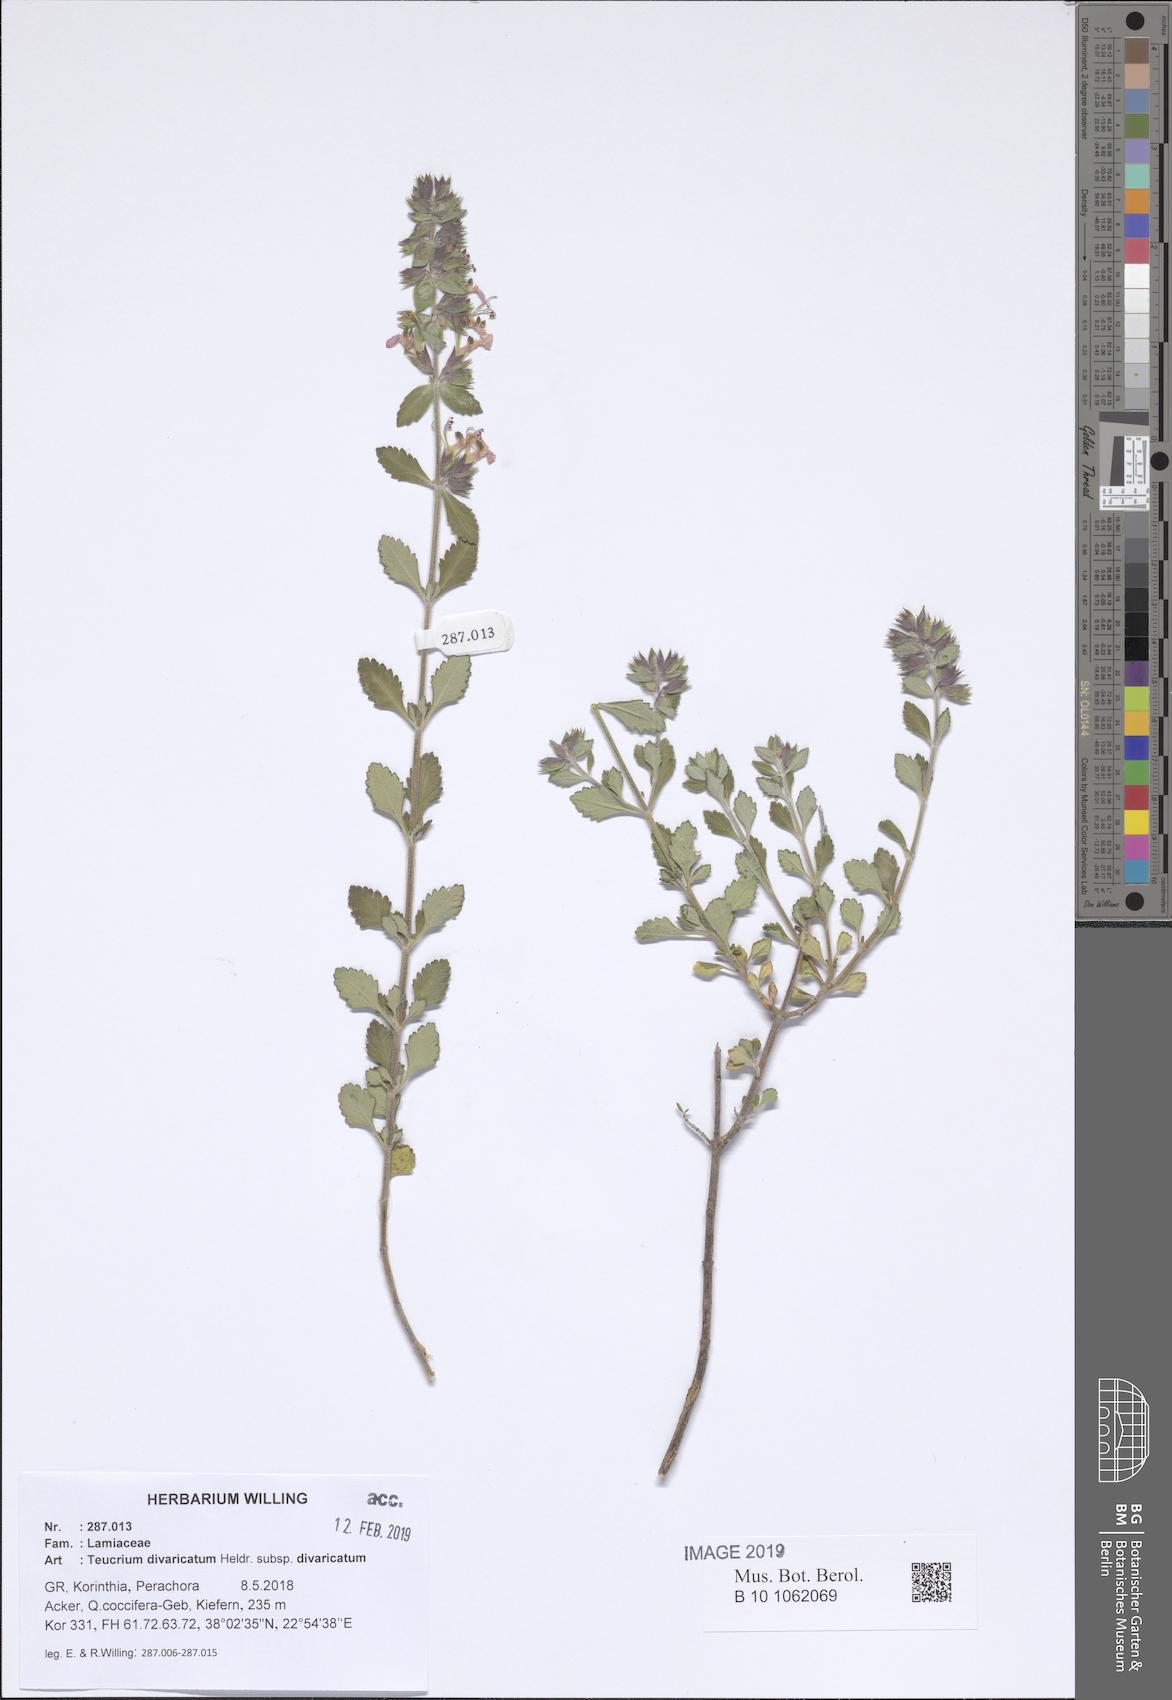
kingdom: Plantae
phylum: Tracheophyta
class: Magnoliopsida
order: Lamiales
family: Lamiaceae
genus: Teucrium
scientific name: Teucrium divaricatum
